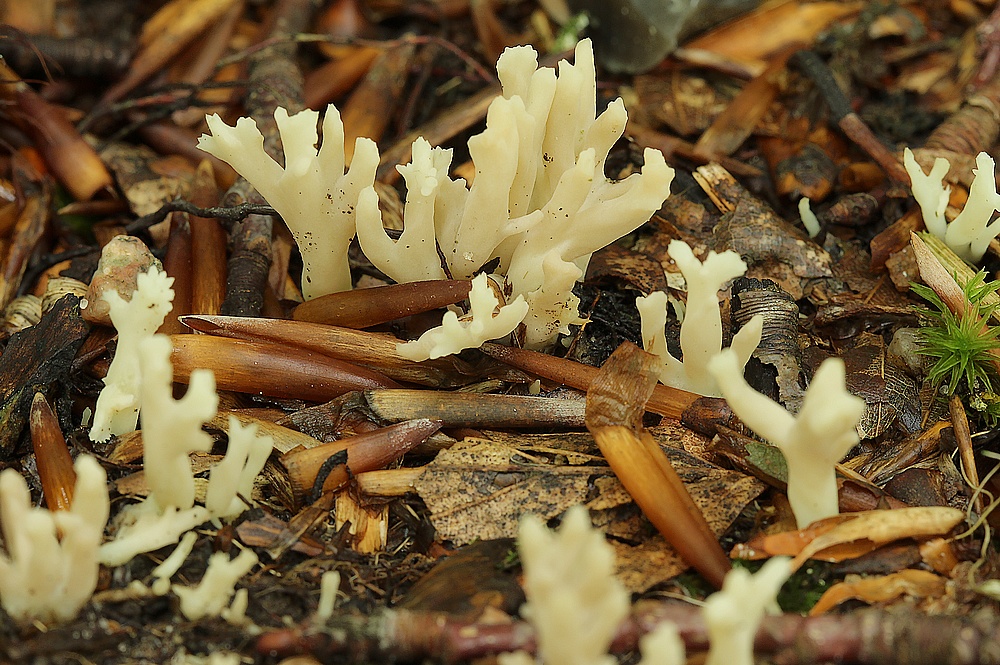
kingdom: Fungi
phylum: Basidiomycota
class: Agaricomycetes
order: Cantharellales
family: Hydnaceae
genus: Clavulina
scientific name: Clavulina
